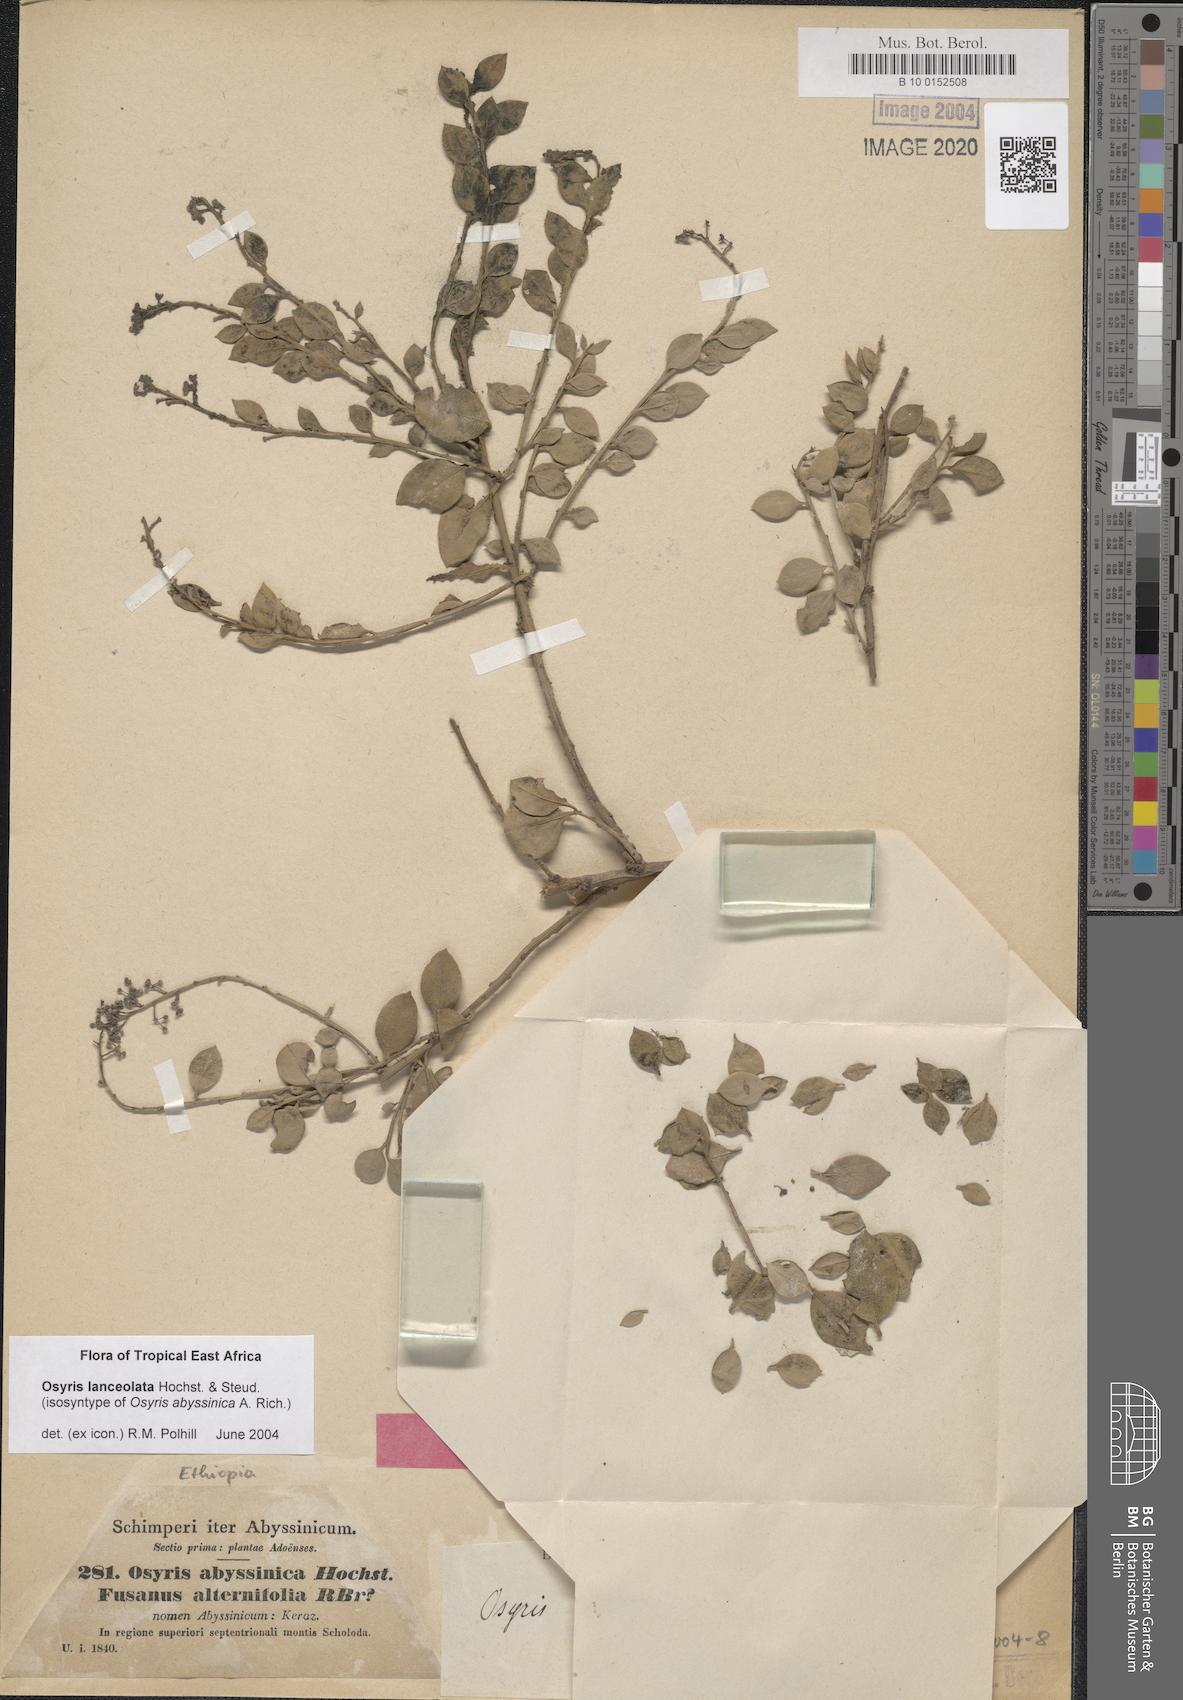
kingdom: Plantae
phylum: Tracheophyta
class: Magnoliopsida
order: Santalales
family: Santalaceae
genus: Osyris
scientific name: Osyris lanceolata
